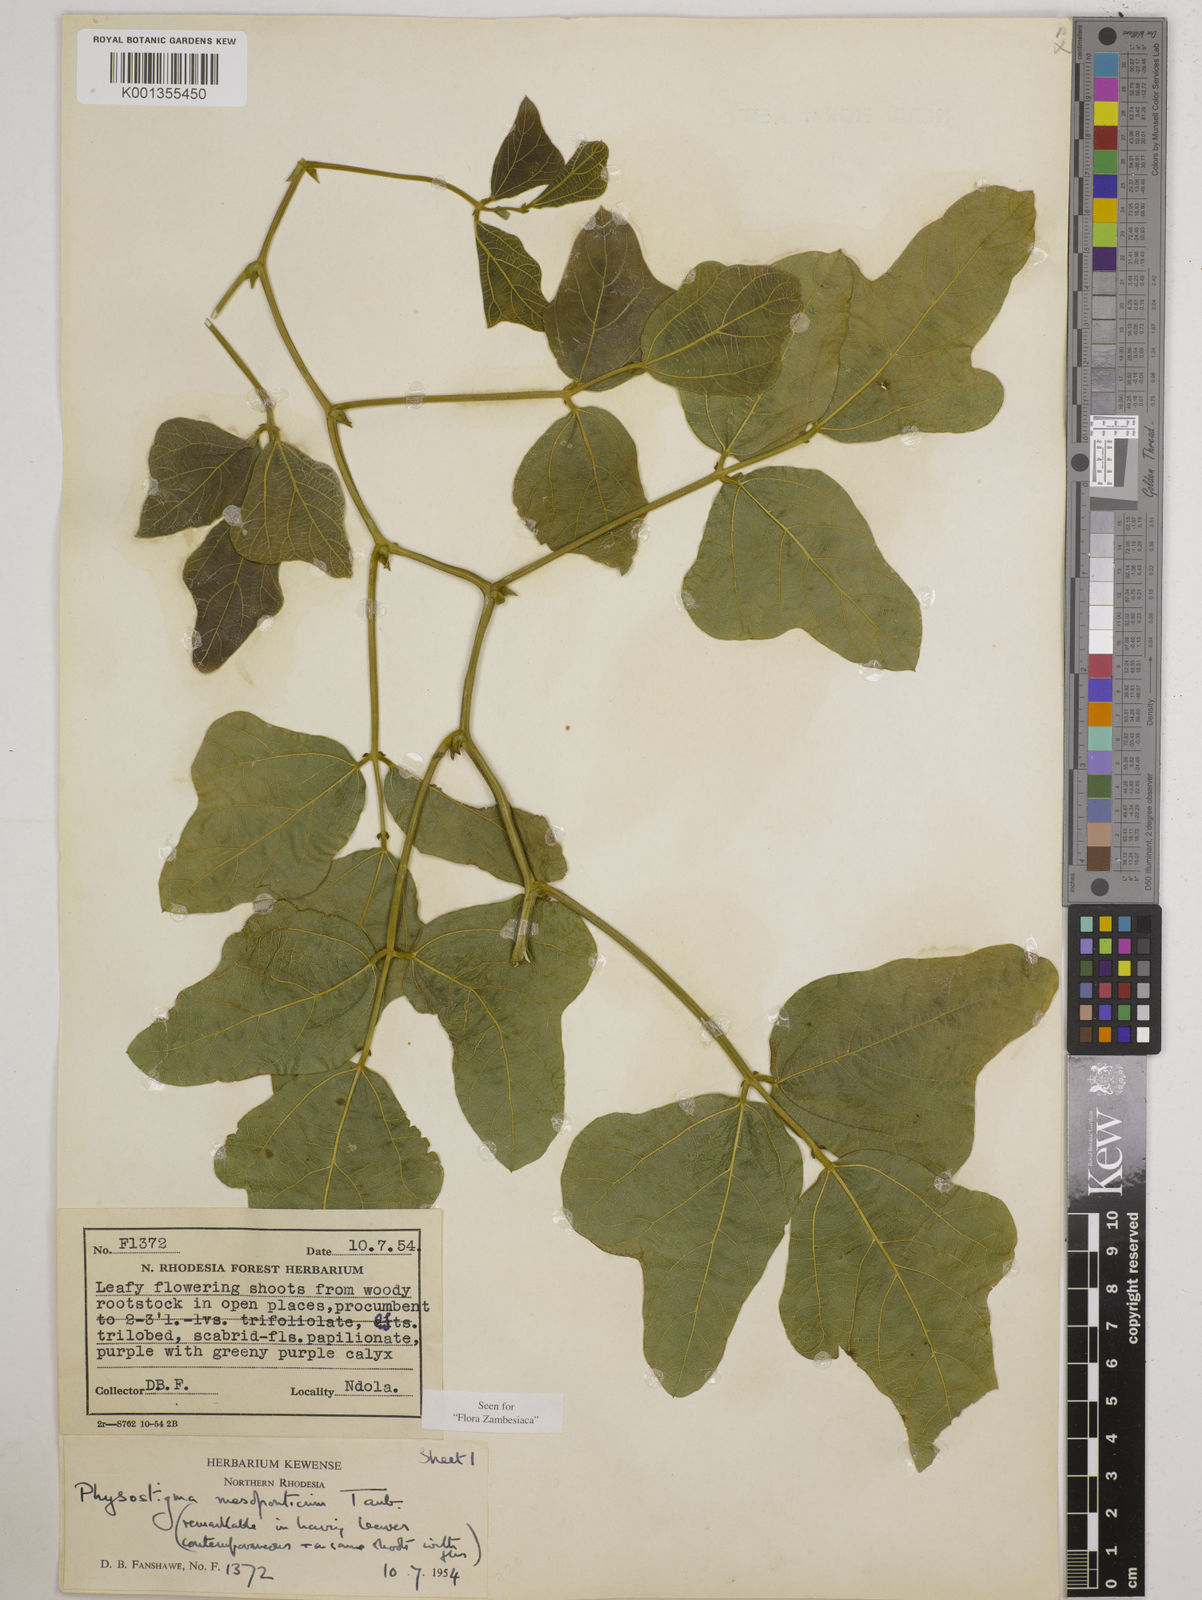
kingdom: Plantae
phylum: Tracheophyta
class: Magnoliopsida
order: Fabales
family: Fabaceae
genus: Physostigma
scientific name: Physostigma mesoponticum
